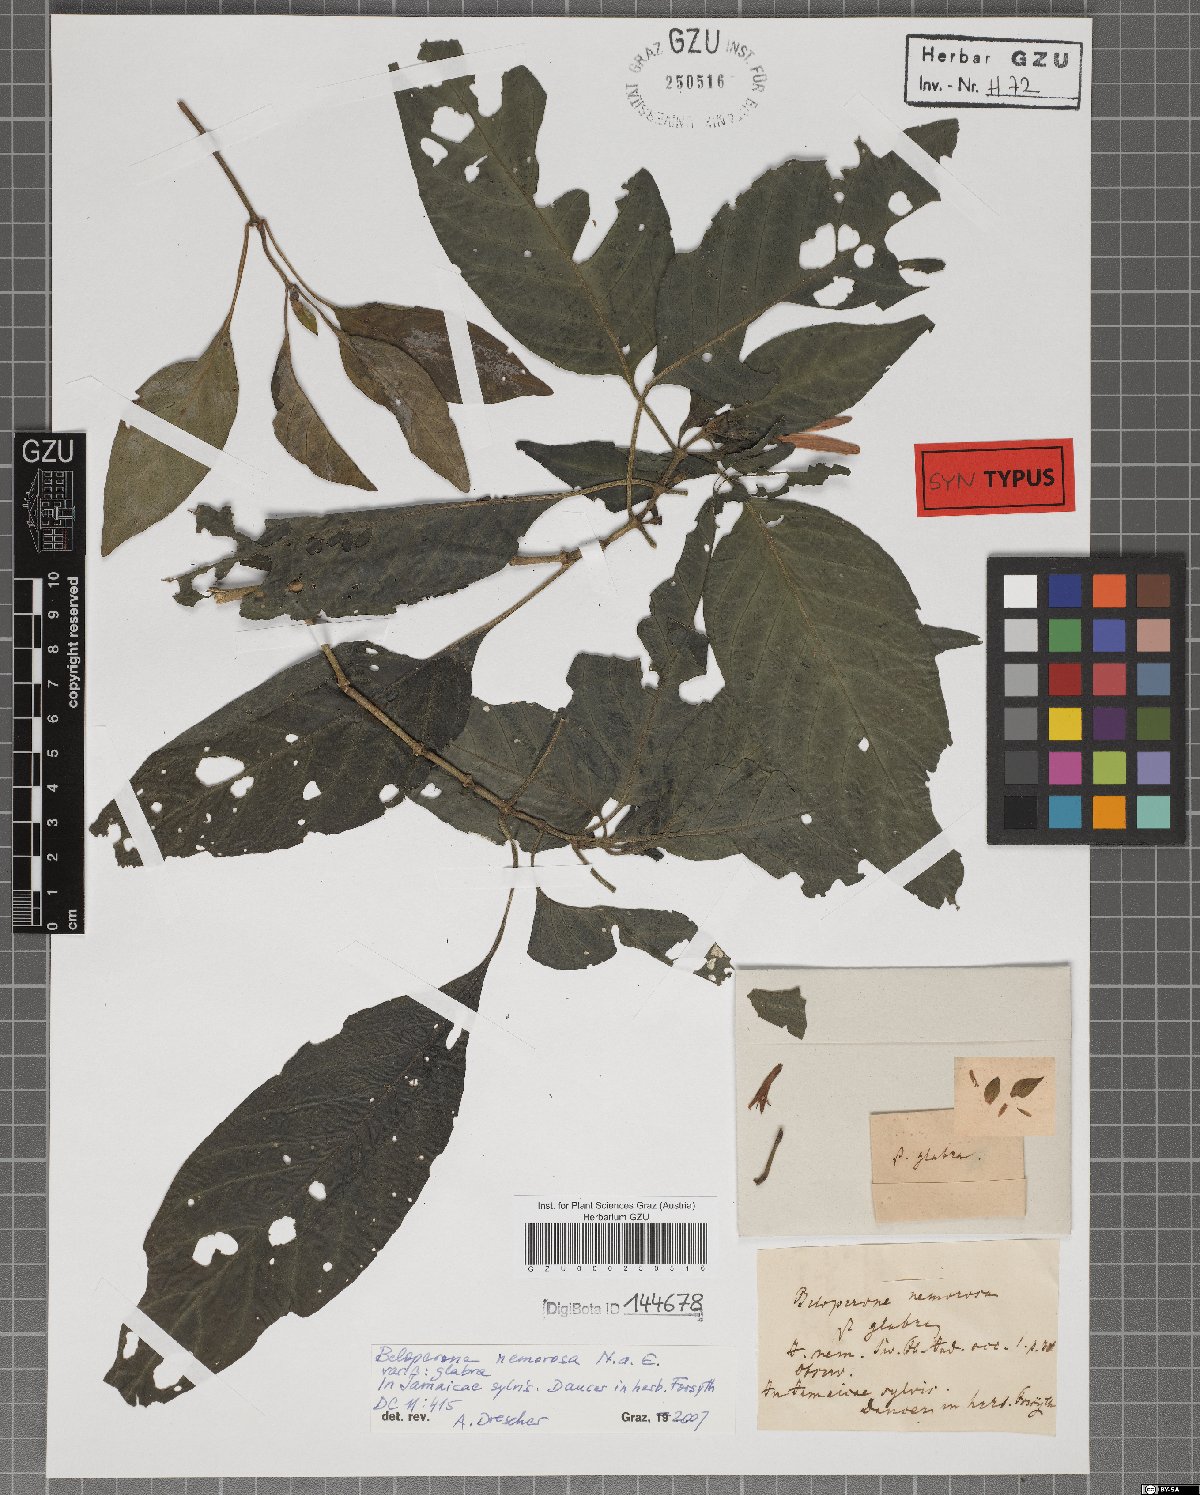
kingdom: Plantae
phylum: Tracheophyta
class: Magnoliopsida
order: Lamiales
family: Acanthaceae
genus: Dianthera
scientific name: Dianthera sessilis
